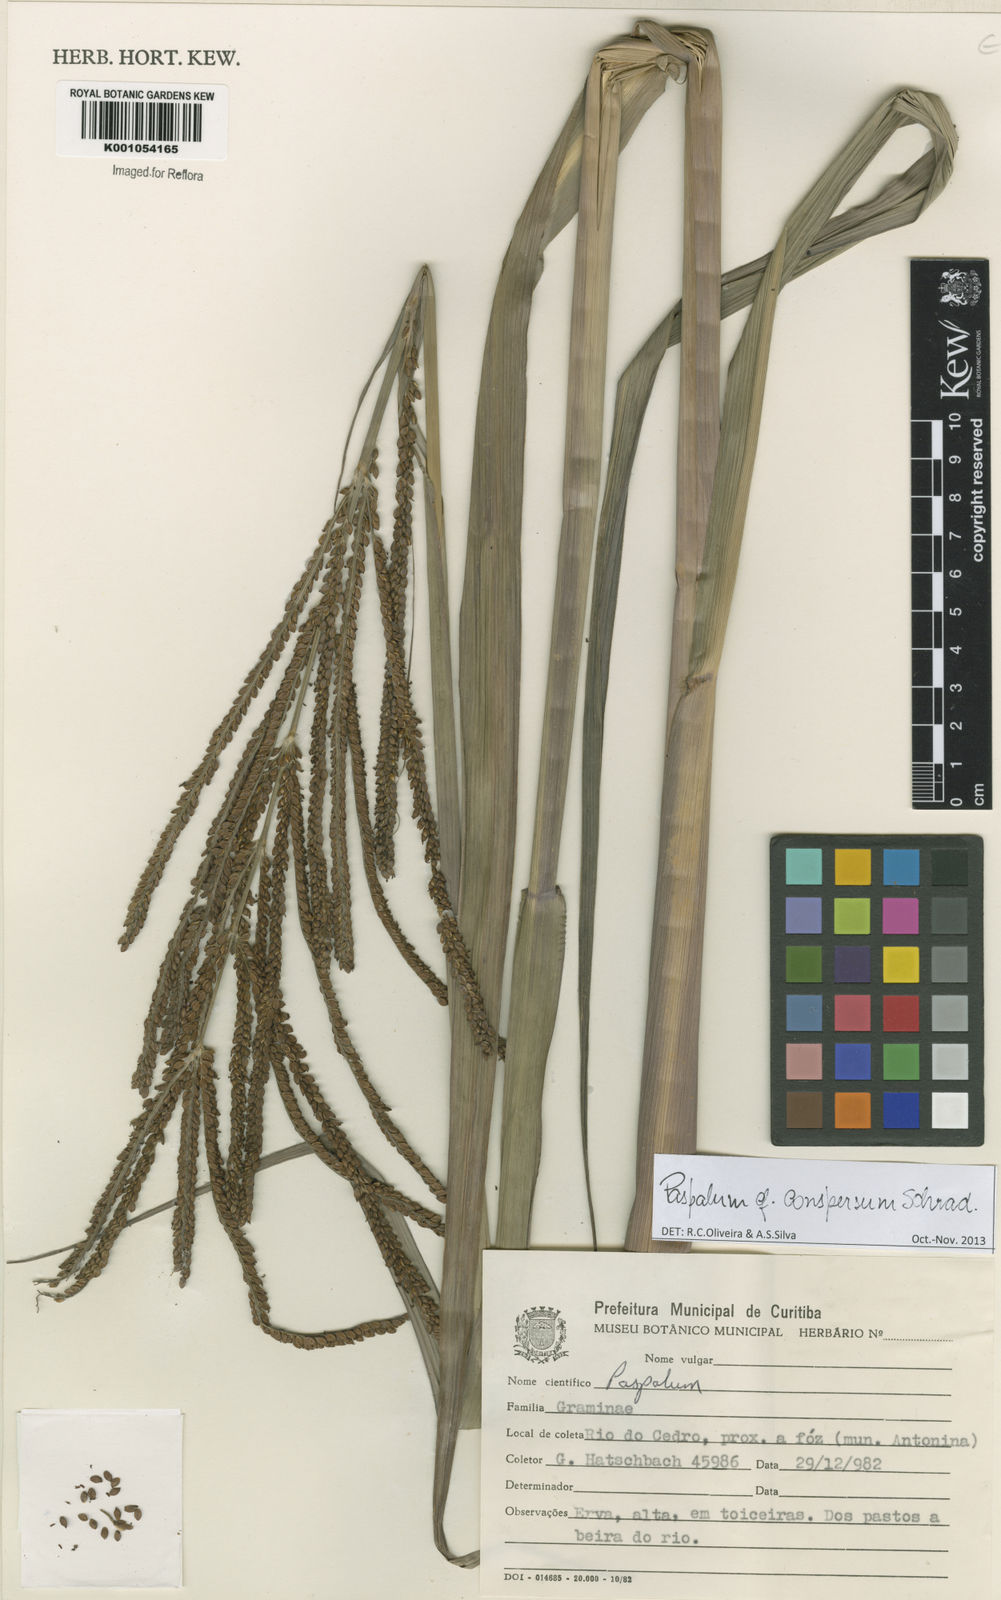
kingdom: Plantae
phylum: Tracheophyta
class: Liliopsida
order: Poales
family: Poaceae
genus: Paspalum
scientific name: Paspalum conspersum
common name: Scattered paspalum
